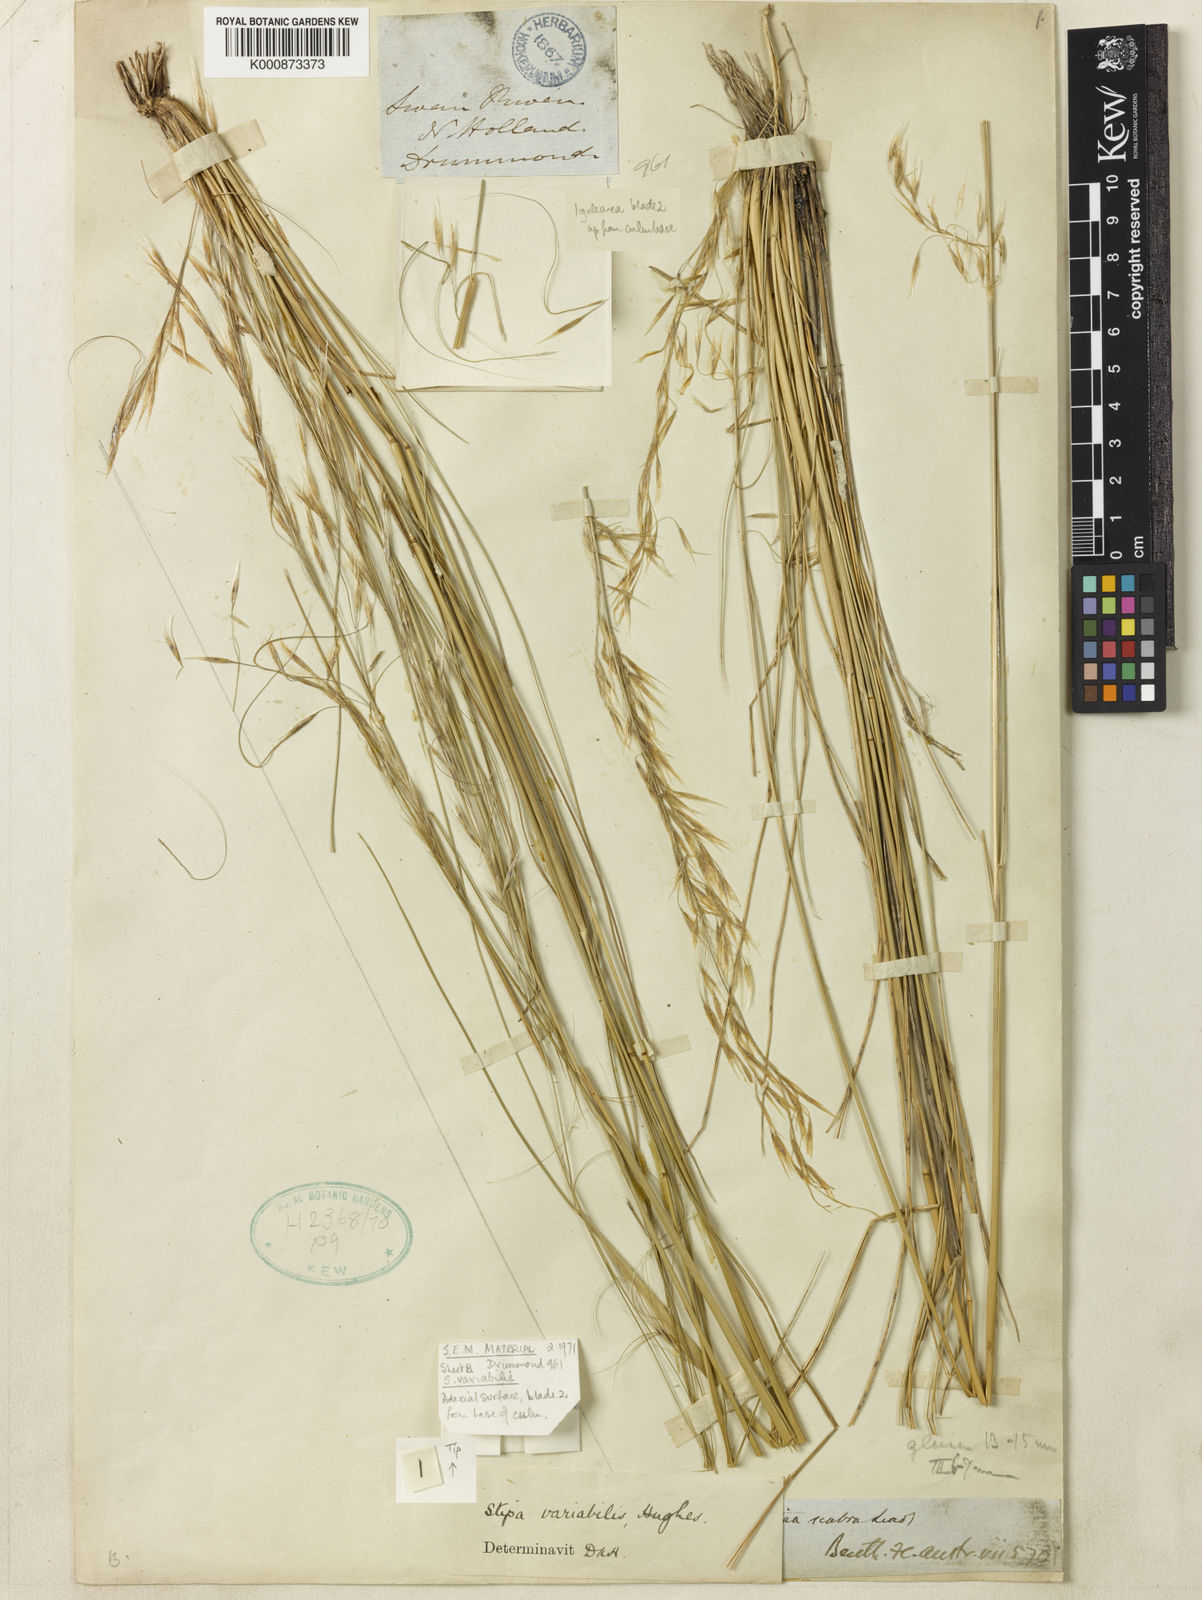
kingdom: Plantae
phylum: Tracheophyta
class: Liliopsida
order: Poales
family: Poaceae
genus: Austrostipa
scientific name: Austrostipa variabilis
